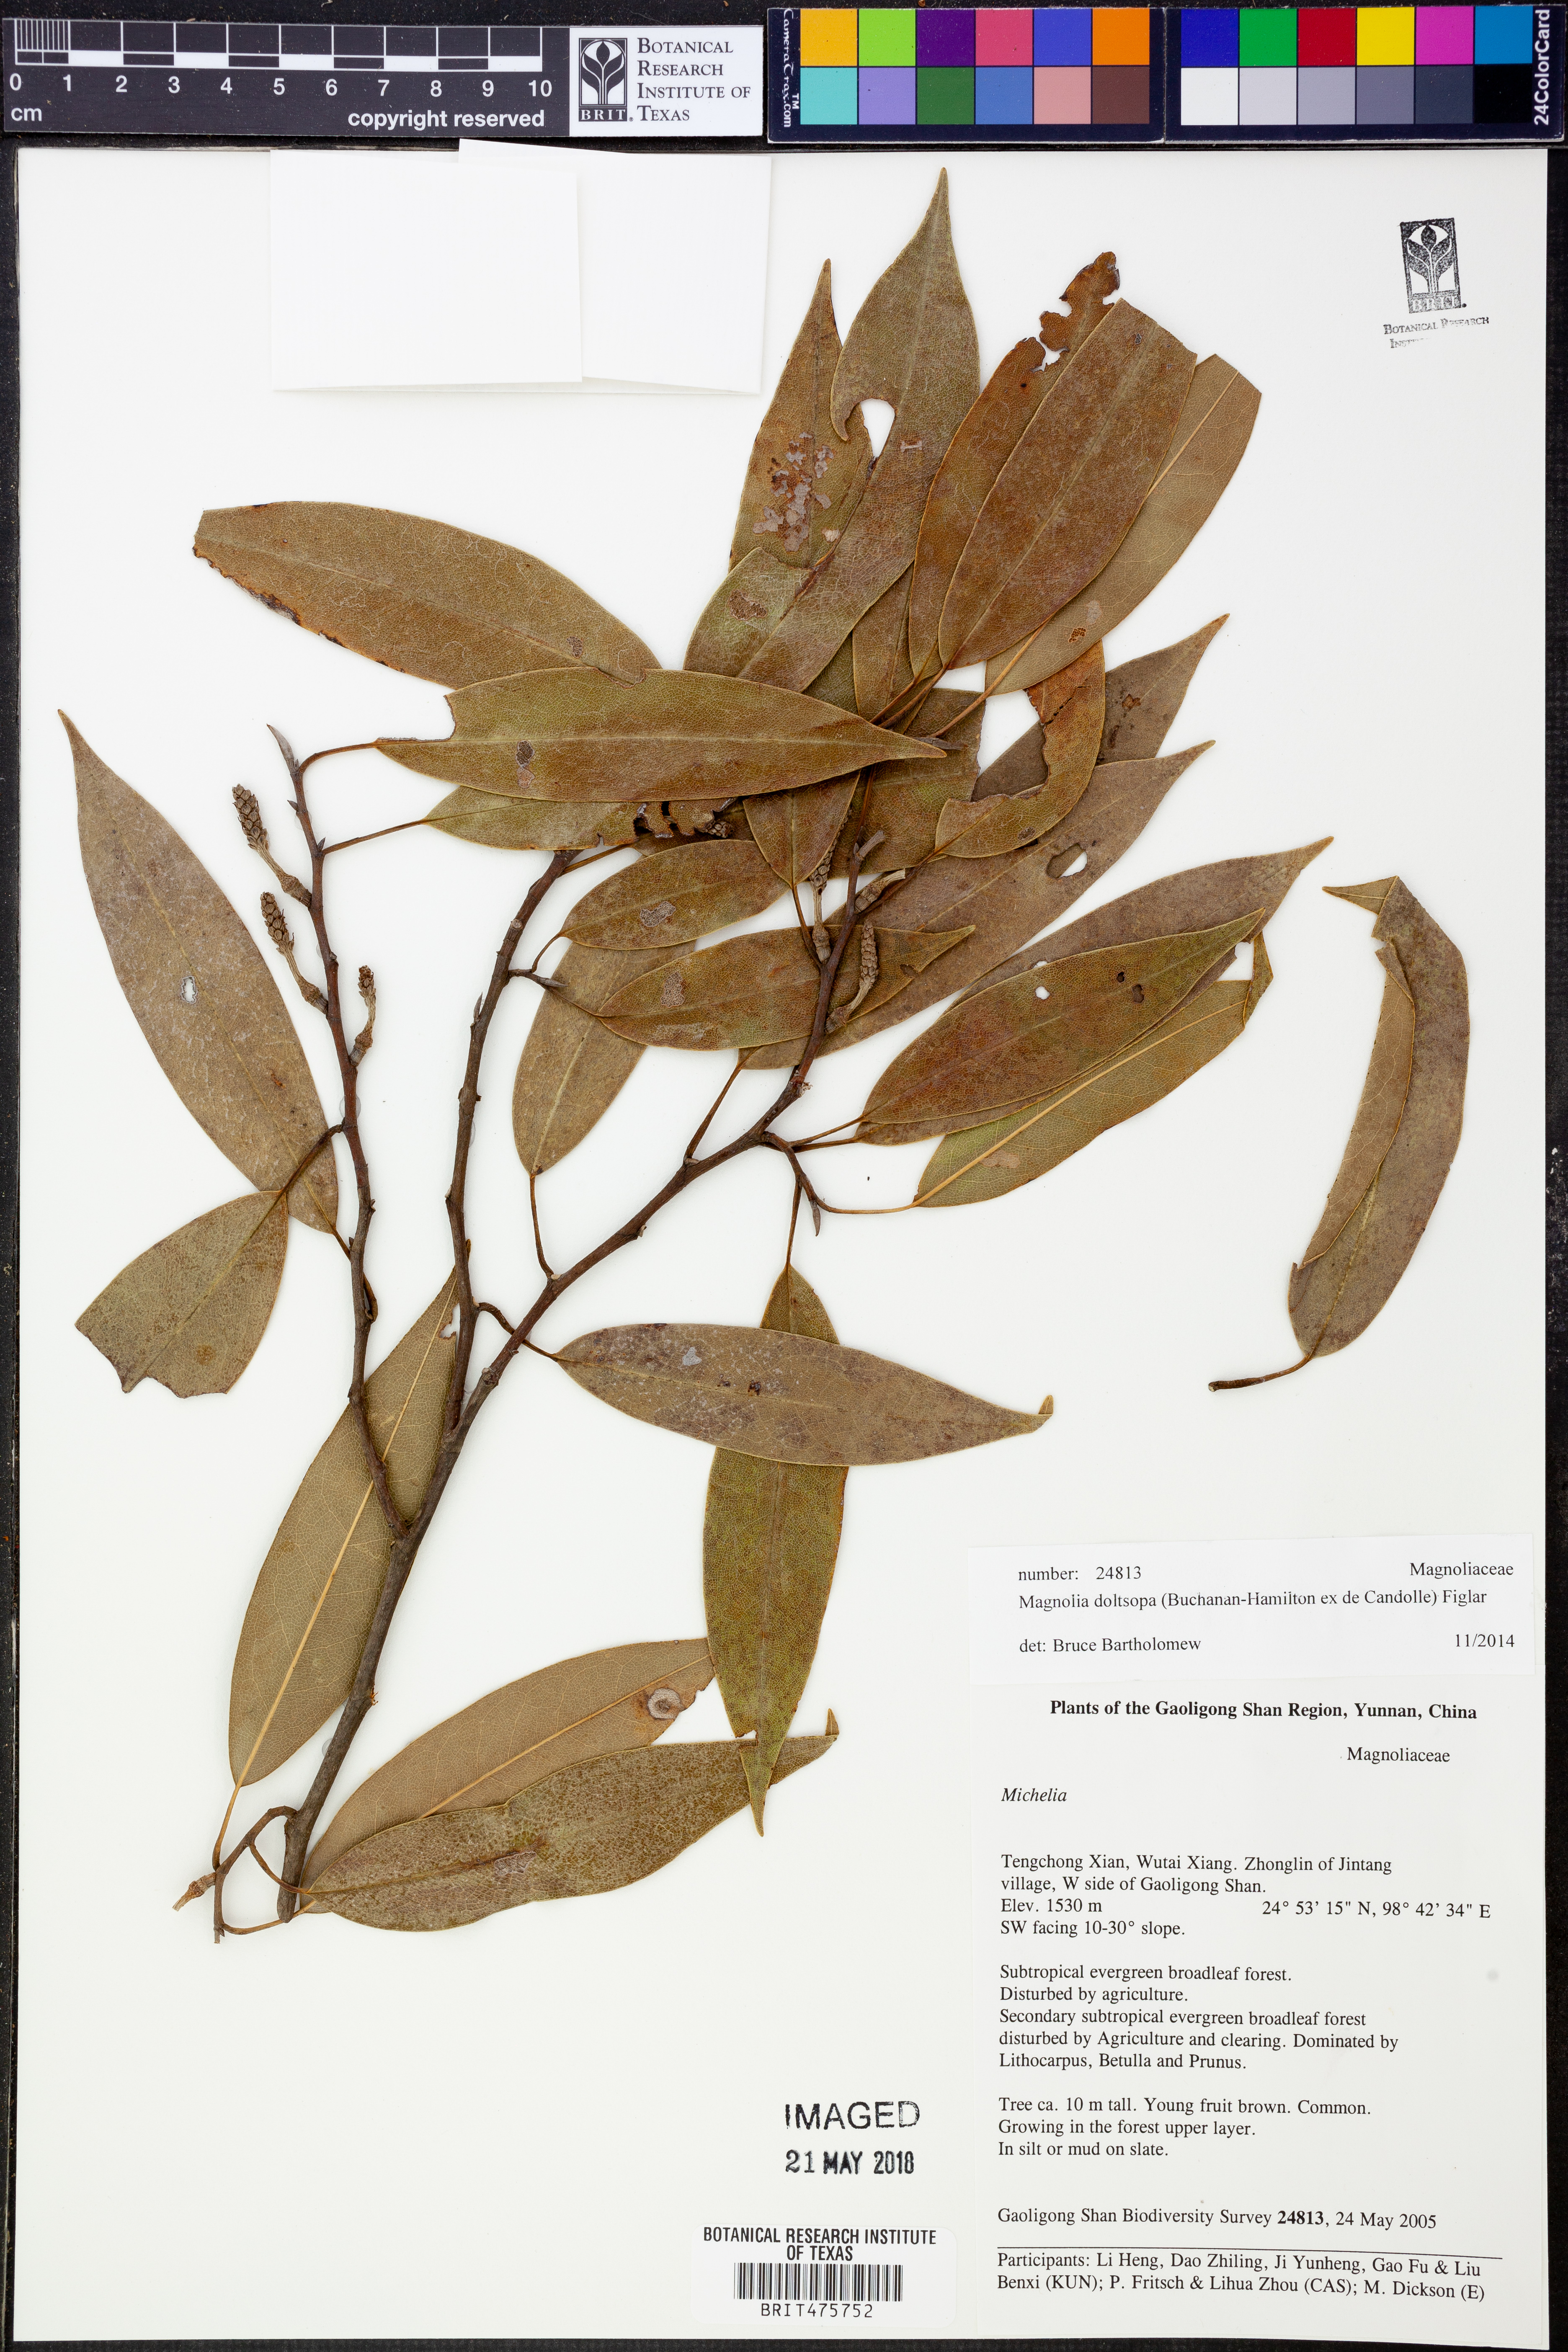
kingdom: Plantae
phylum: Tracheophyta
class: Magnoliopsida
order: Magnoliales
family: Magnoliaceae
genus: Magnolia
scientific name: Magnolia doltsopa
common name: Sweet michelia
